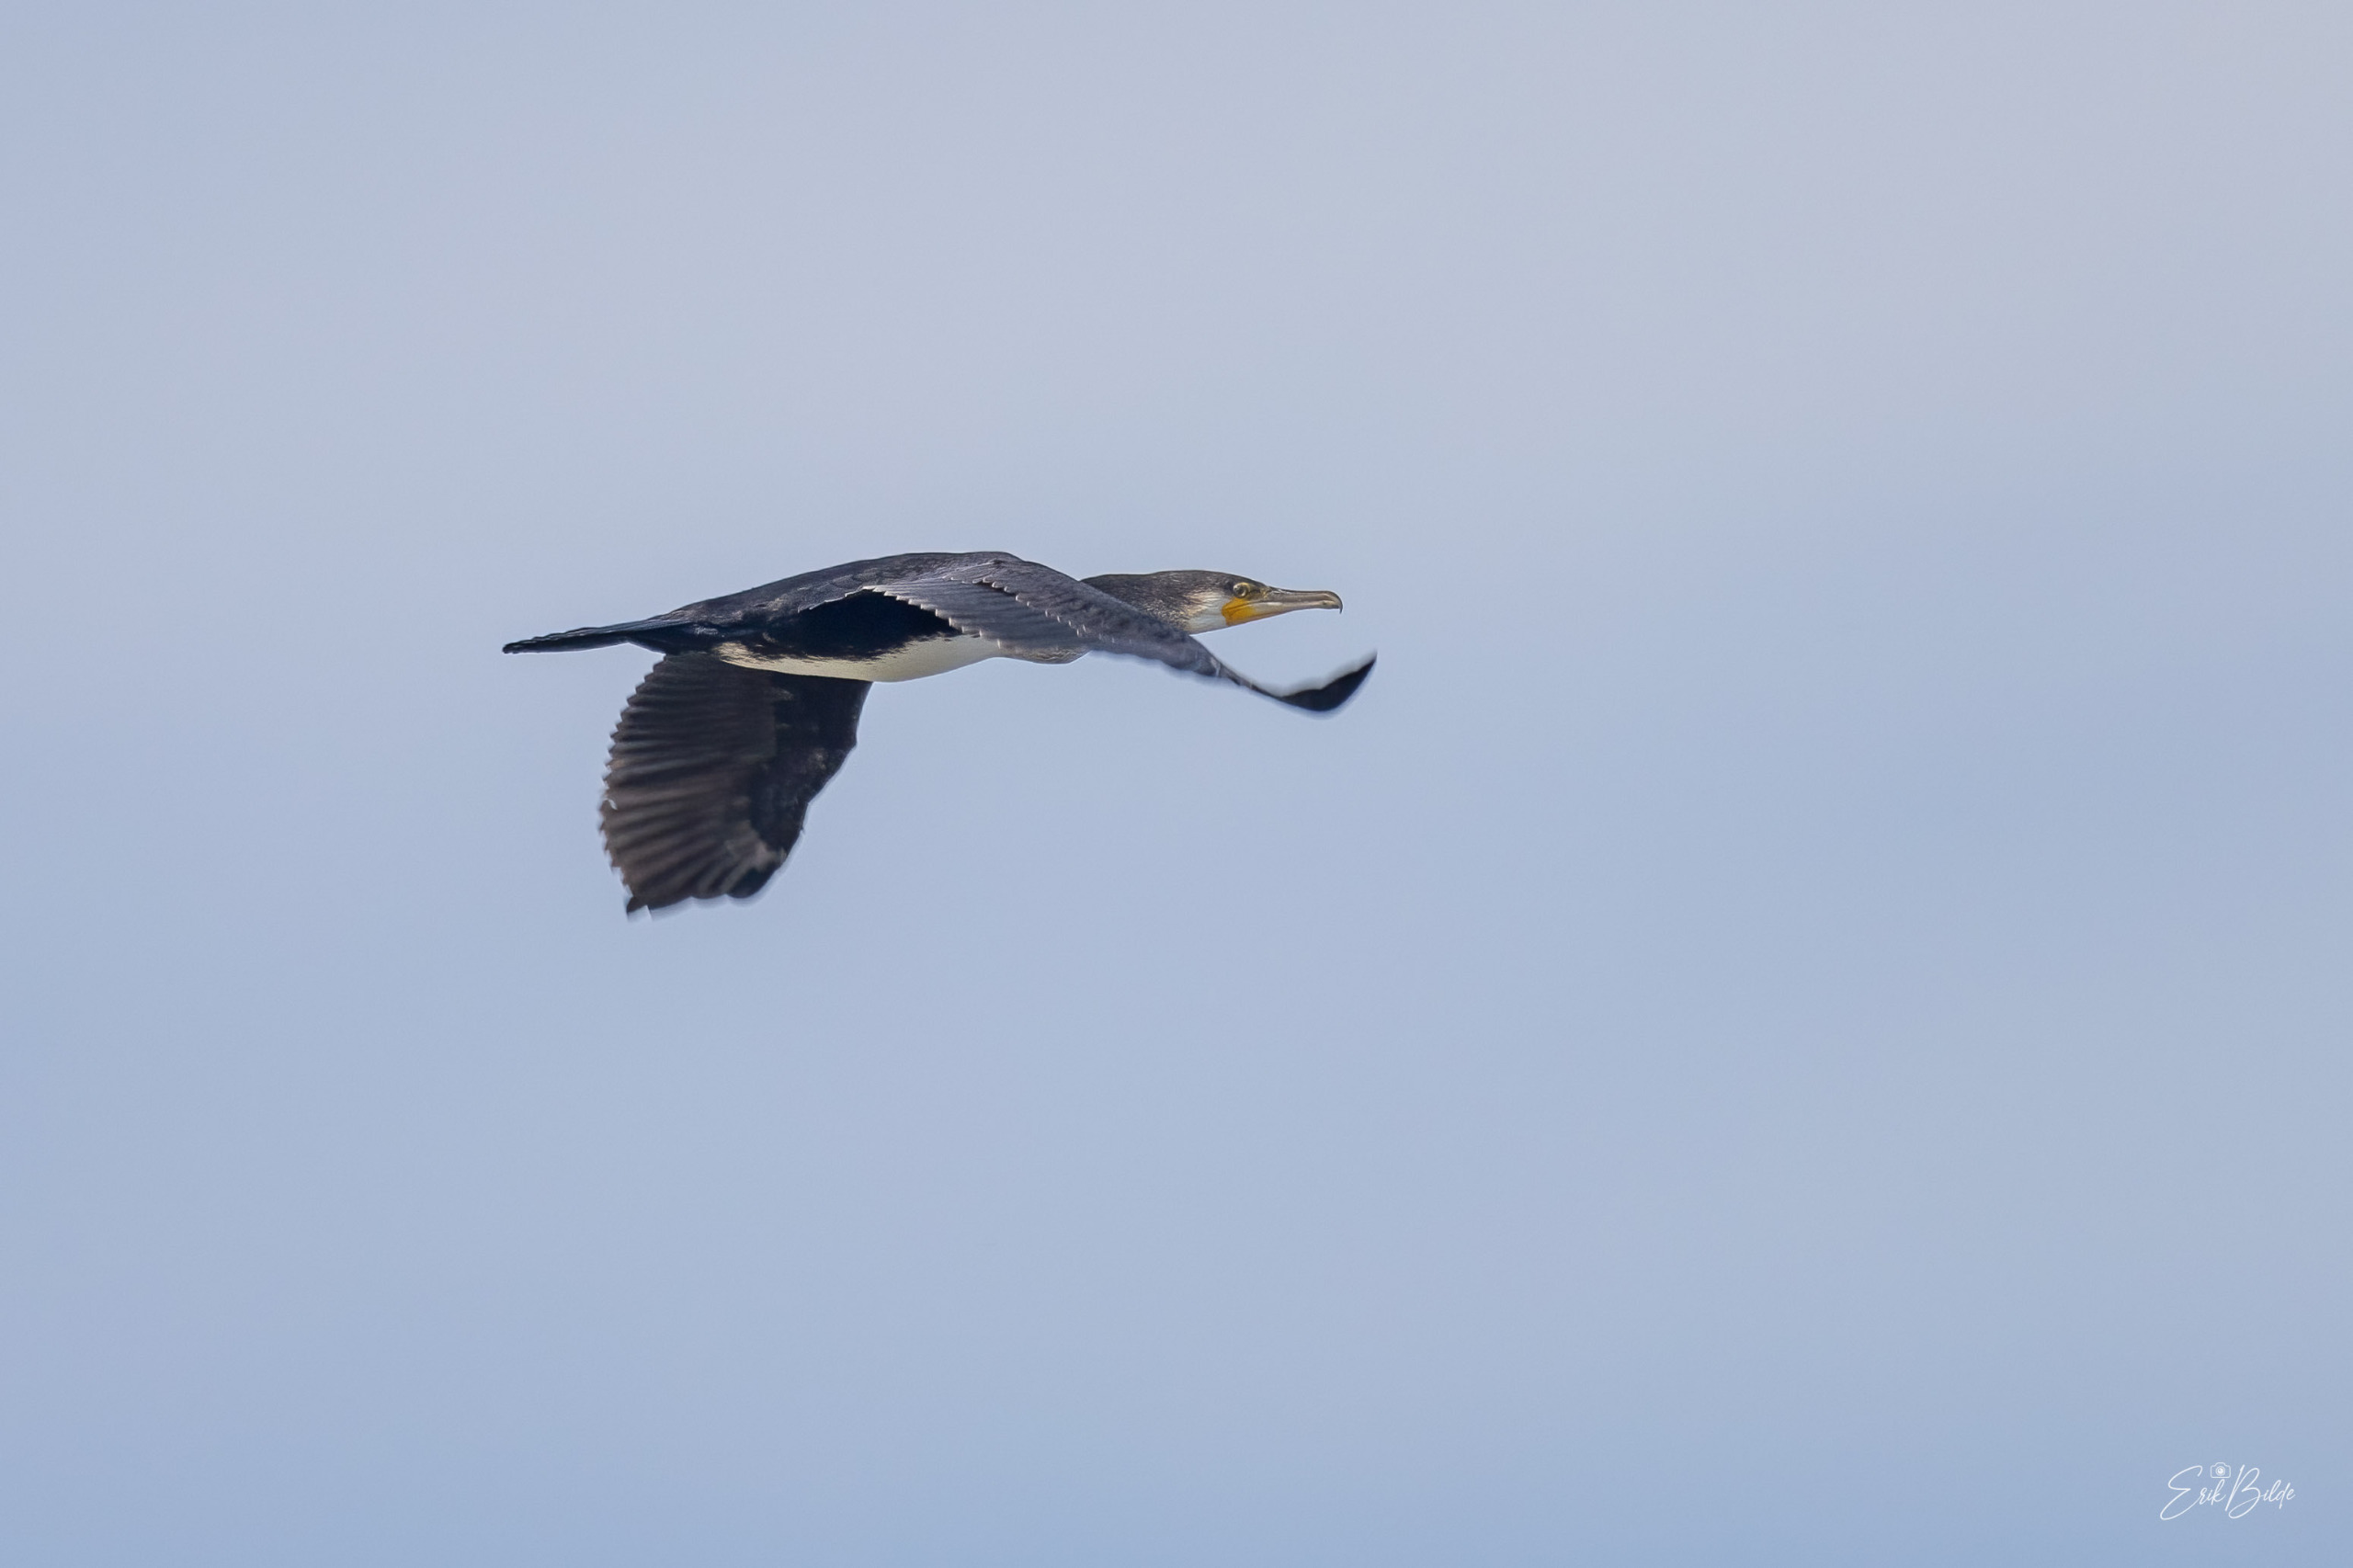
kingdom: Animalia
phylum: Chordata
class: Aves
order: Suliformes
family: Phalacrocoracidae
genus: Phalacrocorax
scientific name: Phalacrocorax carbo
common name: Skarv
